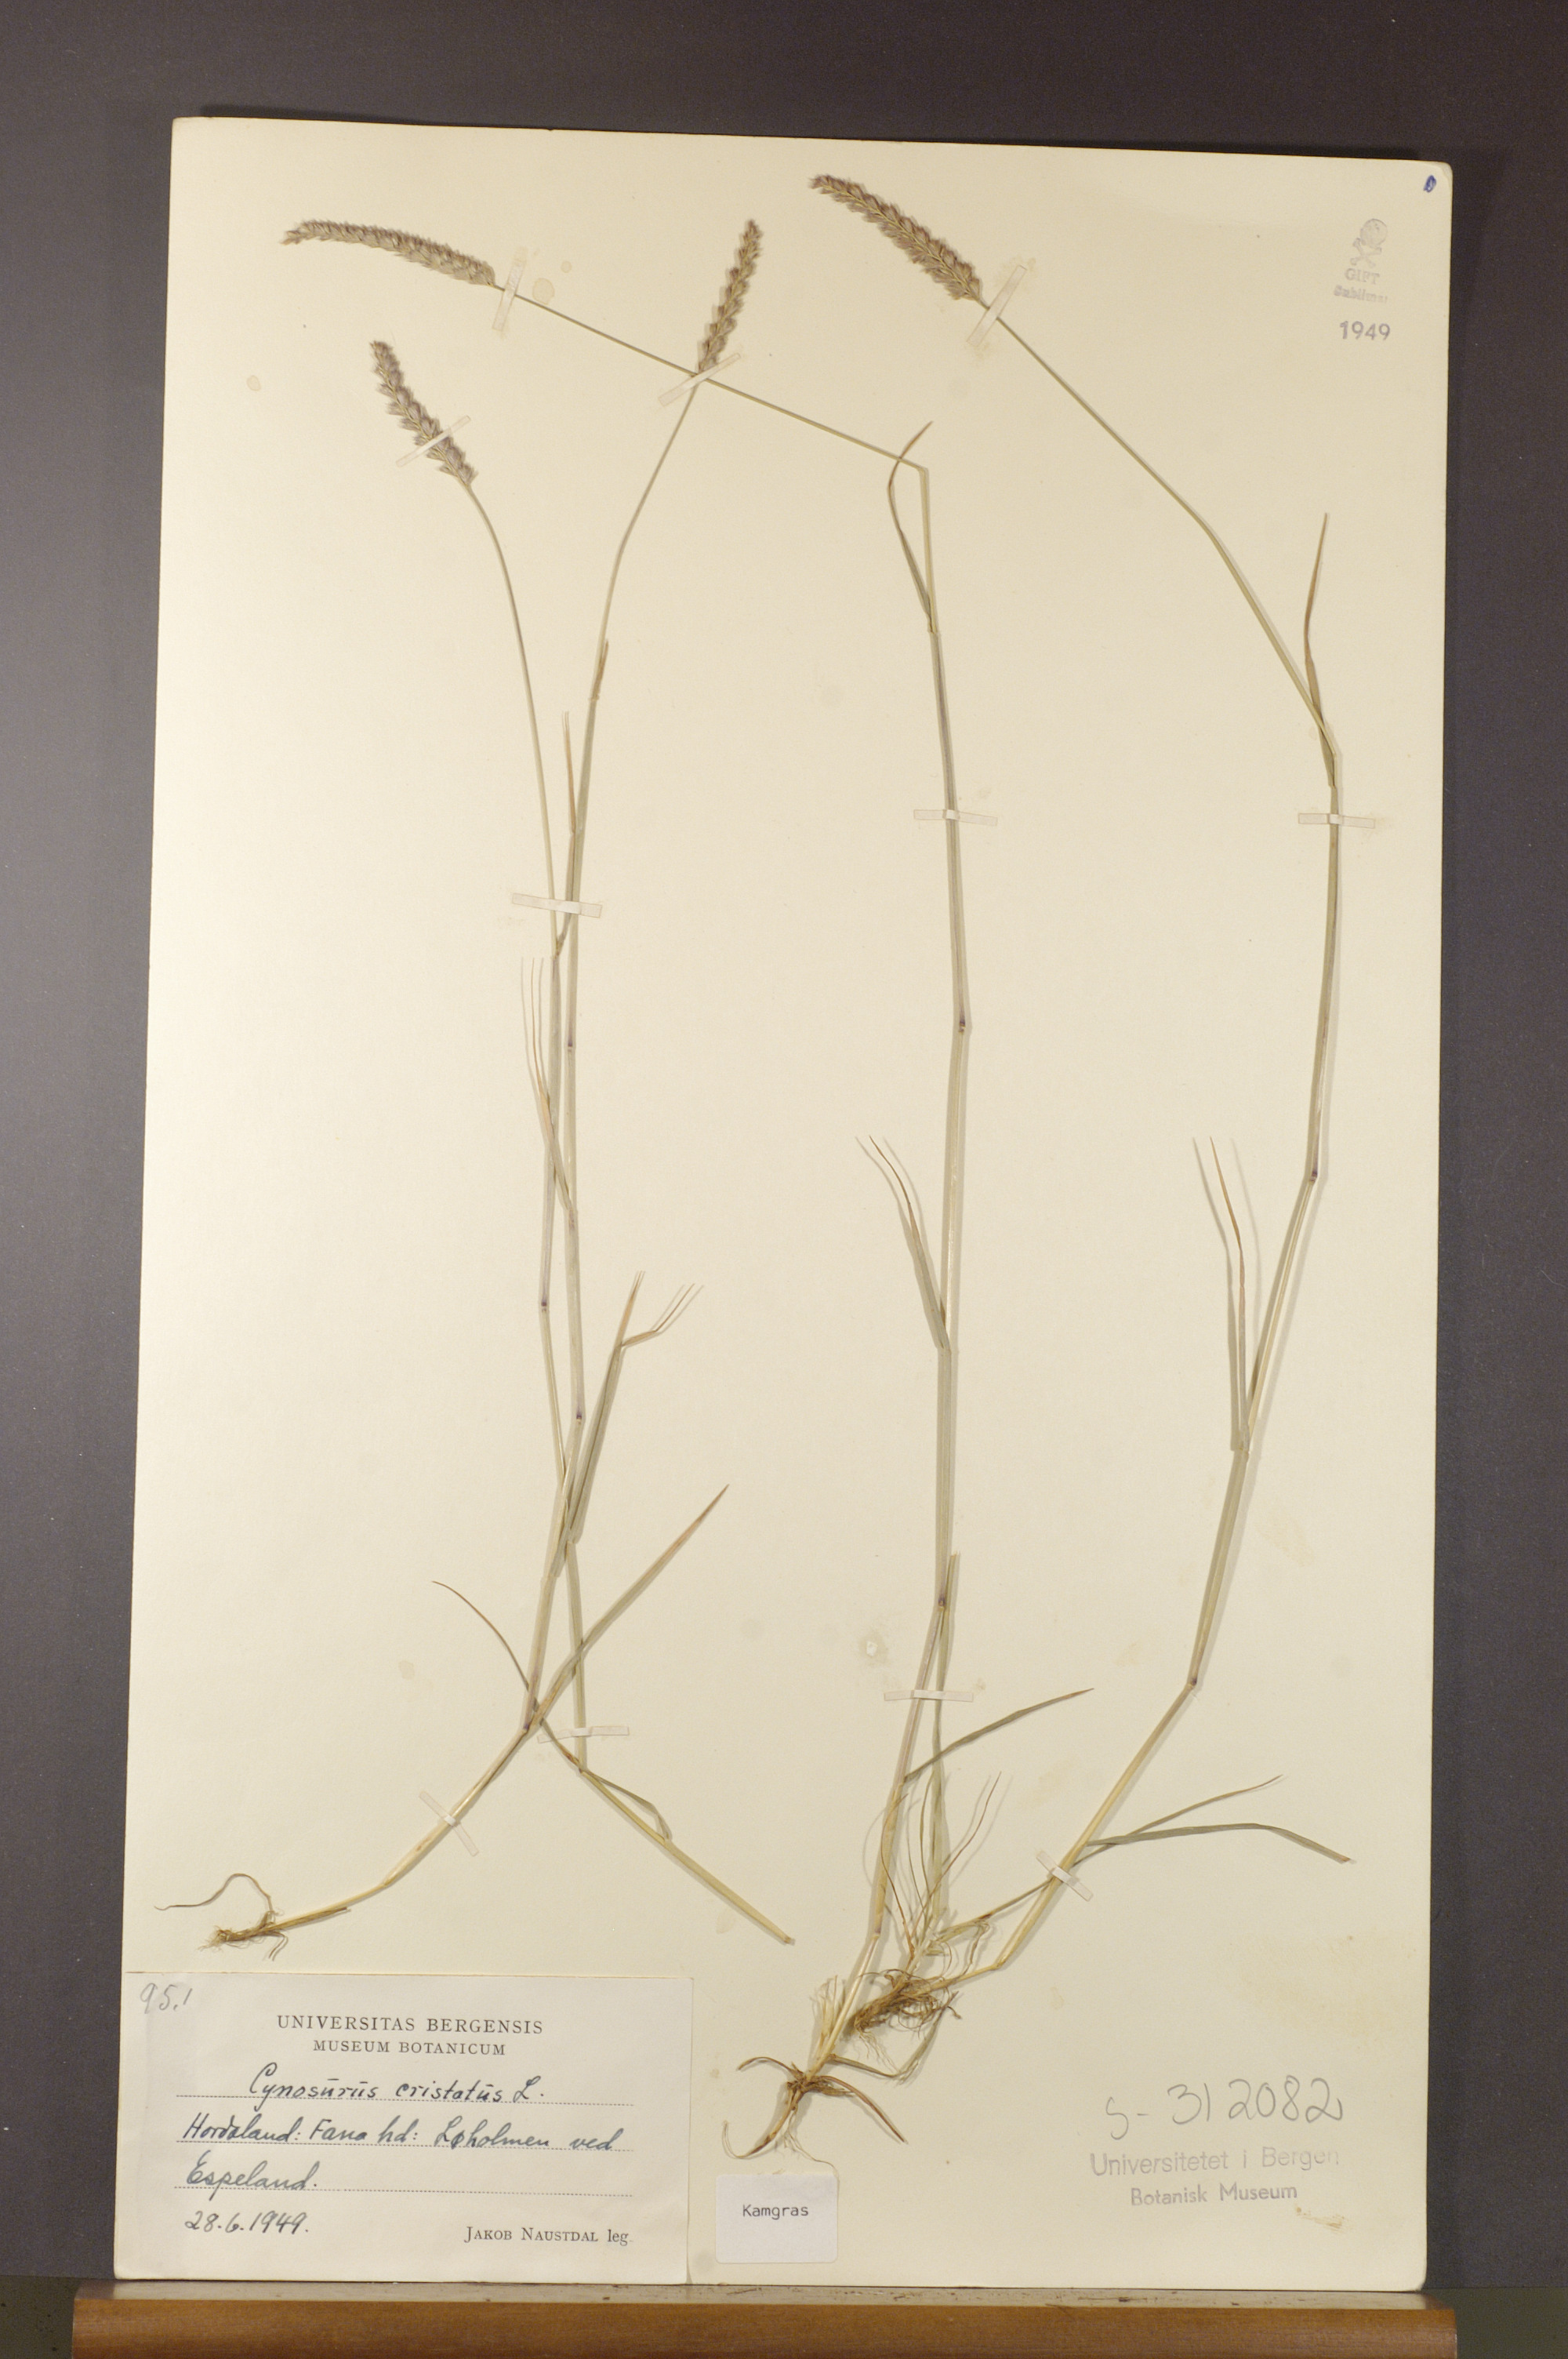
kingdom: Plantae
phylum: Tracheophyta
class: Liliopsida
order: Poales
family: Poaceae
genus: Cynosurus
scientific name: Cynosurus cristatus
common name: Crested dog's-tail
